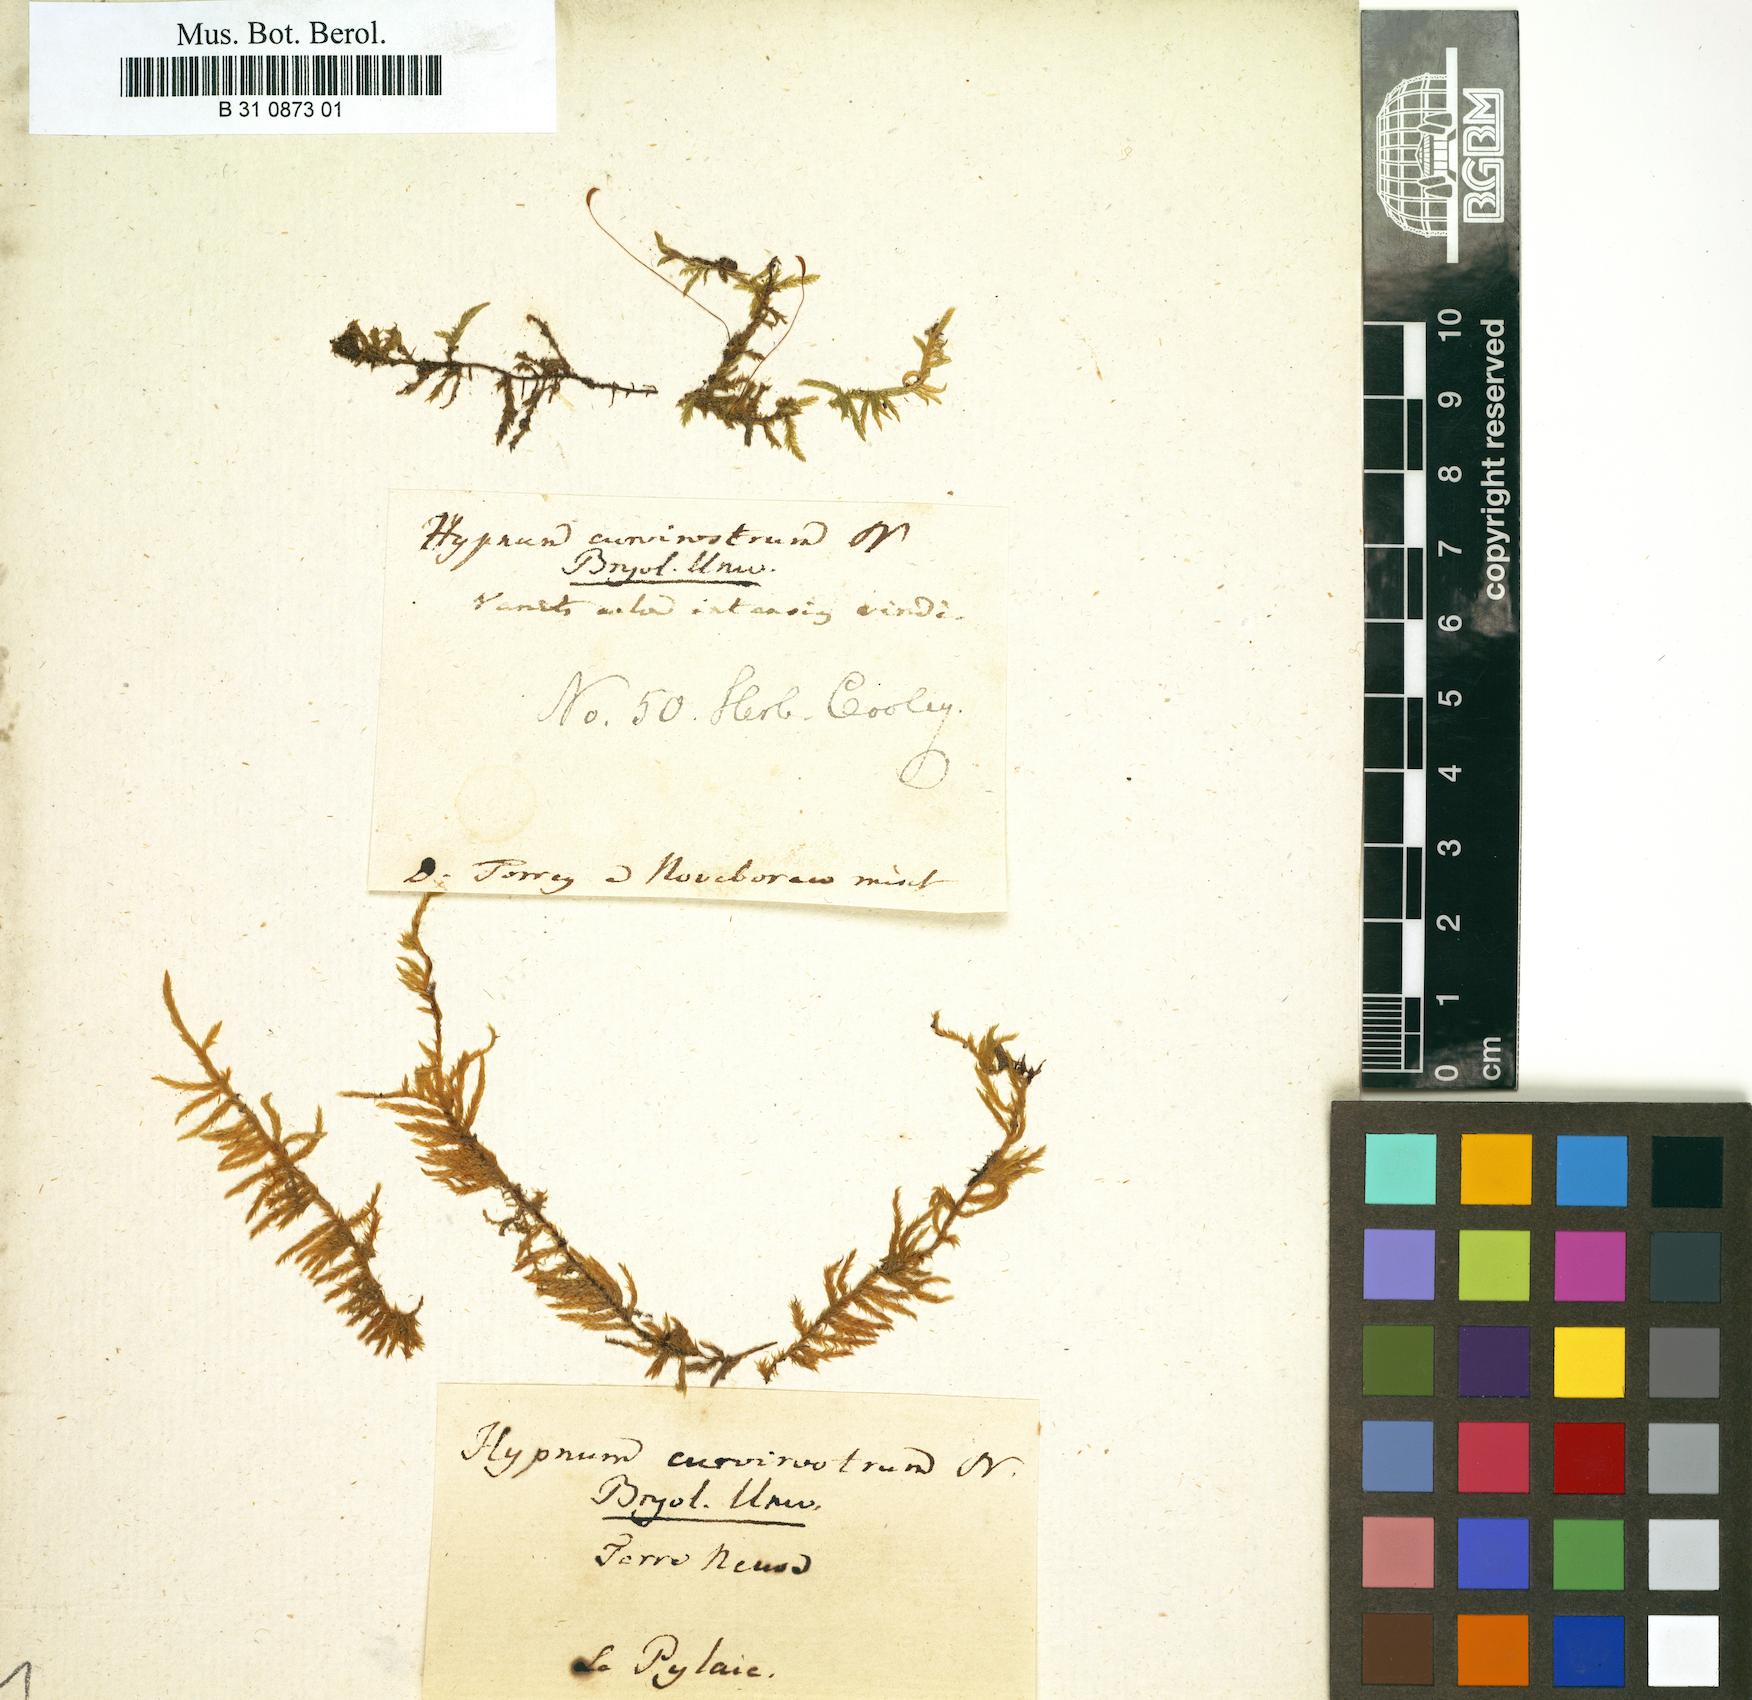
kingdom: Plantae
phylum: Bryophyta
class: Bryopsida
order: Hypnales
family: Hypnaceae
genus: Hypnum
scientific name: Hypnum
